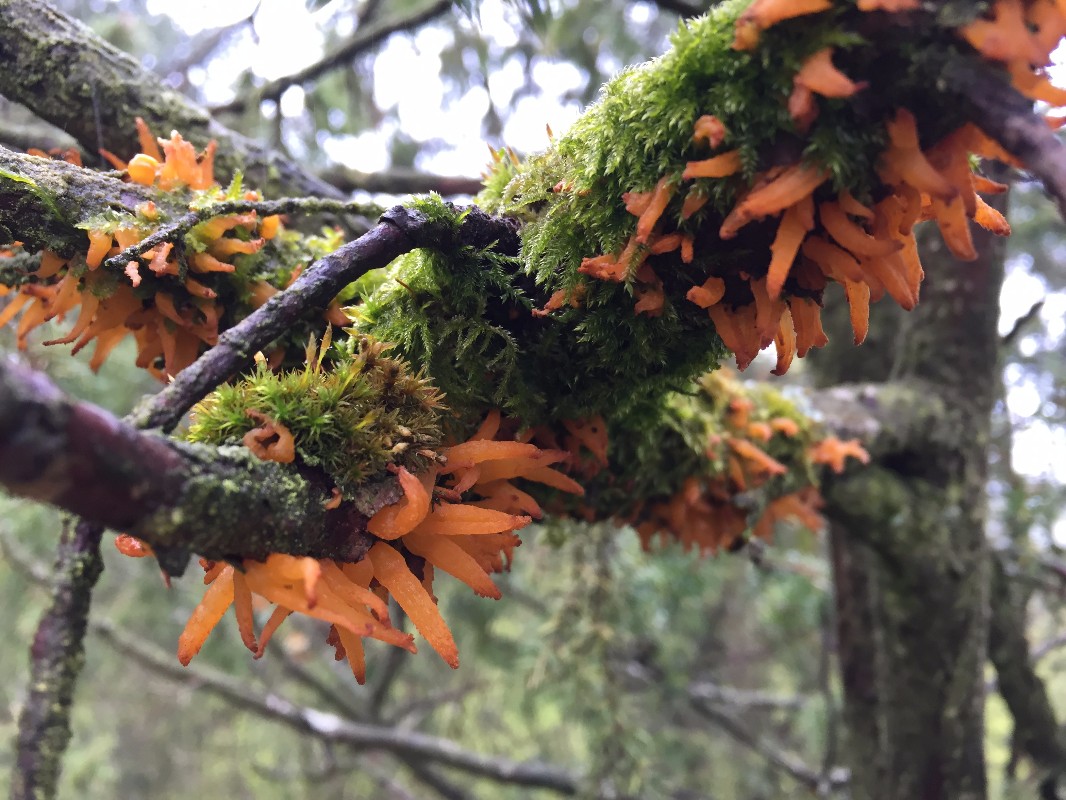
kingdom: Fungi
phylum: Basidiomycota
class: Pucciniomycetes
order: Pucciniales
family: Gymnosporangiaceae
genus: Gymnosporangium
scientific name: Gymnosporangium clavariiforme
